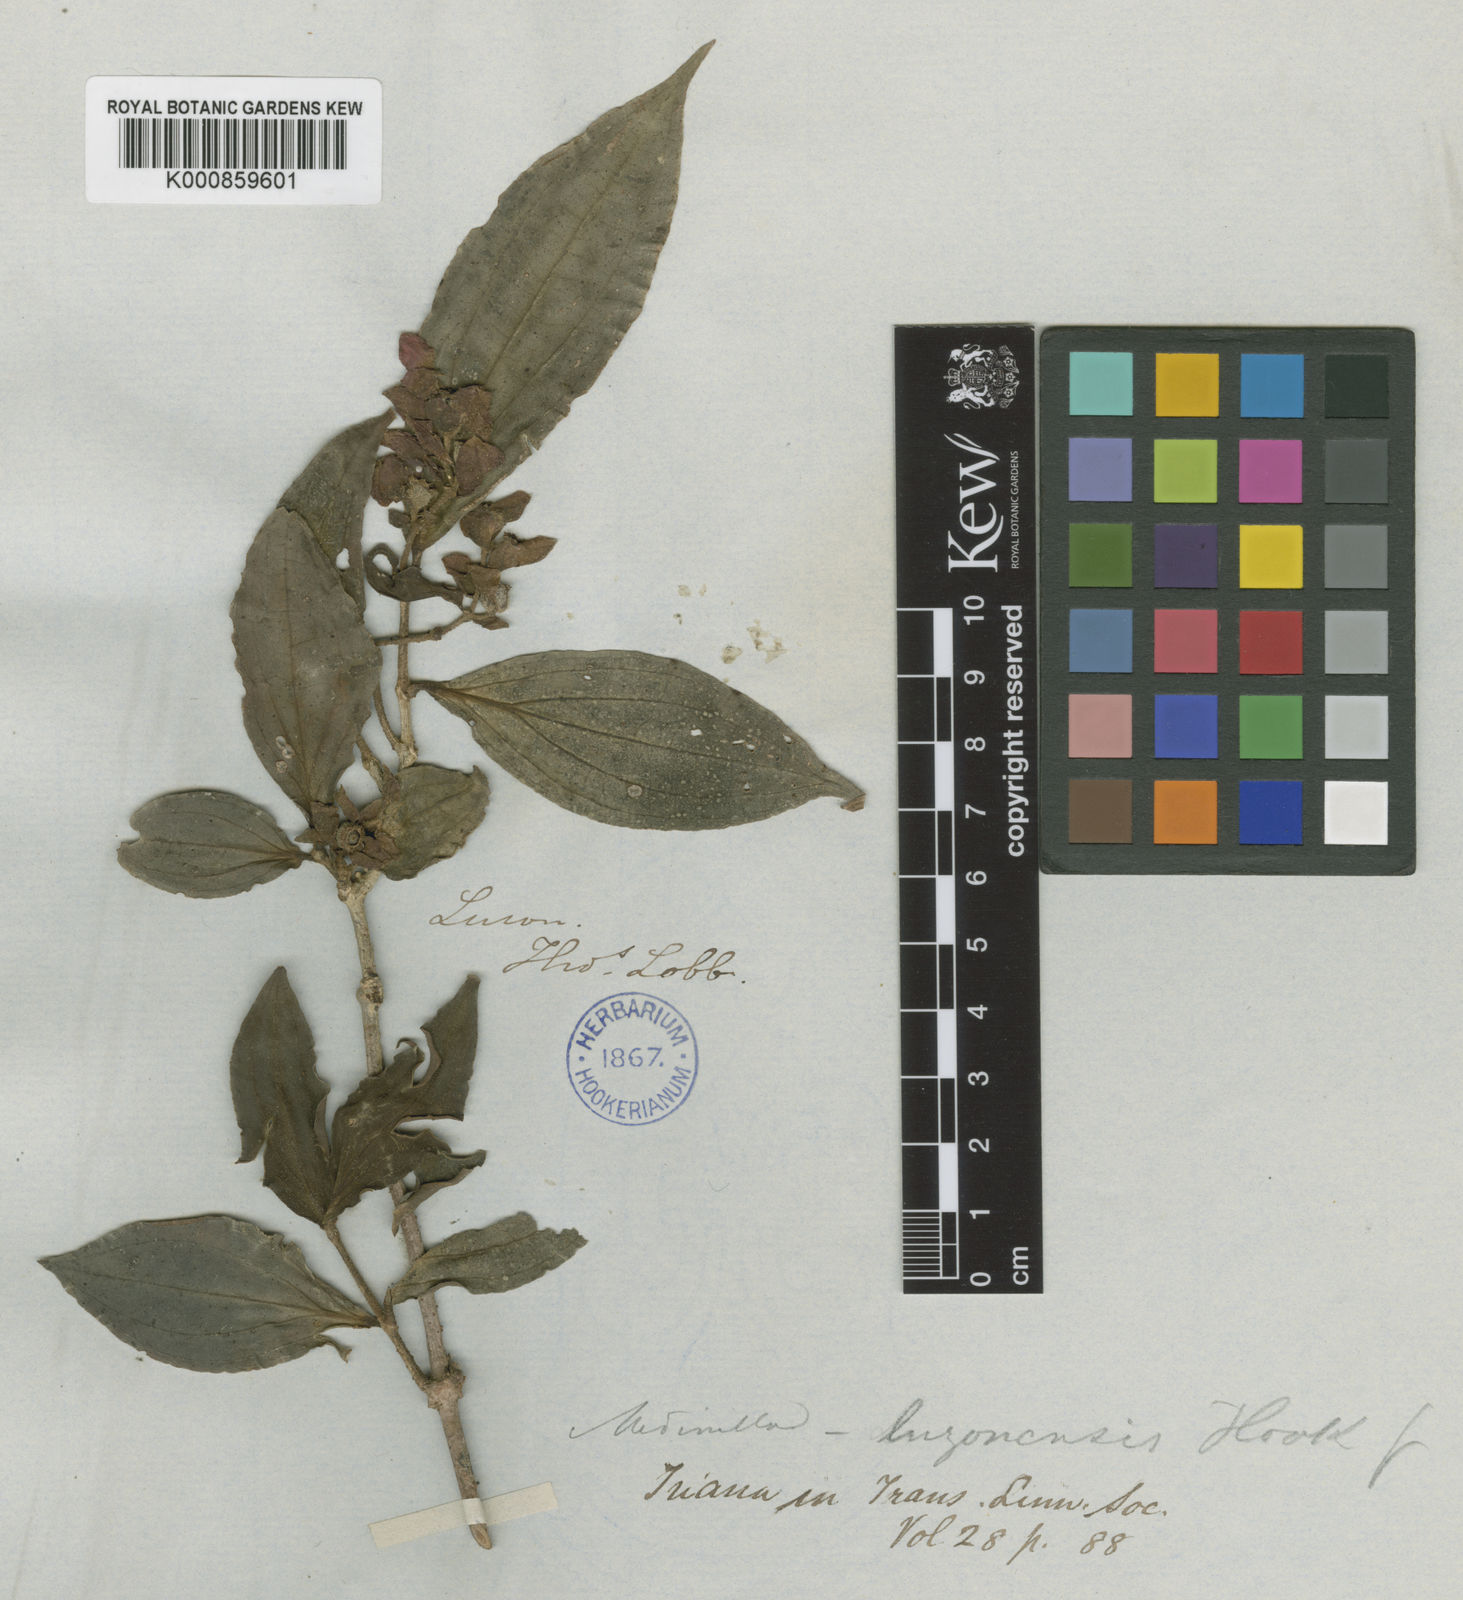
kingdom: Plantae
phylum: Tracheophyta
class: Magnoliopsida
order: Myrtales
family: Melastomataceae
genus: Medinilla
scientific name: Medinilla venosa
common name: Holdtight
